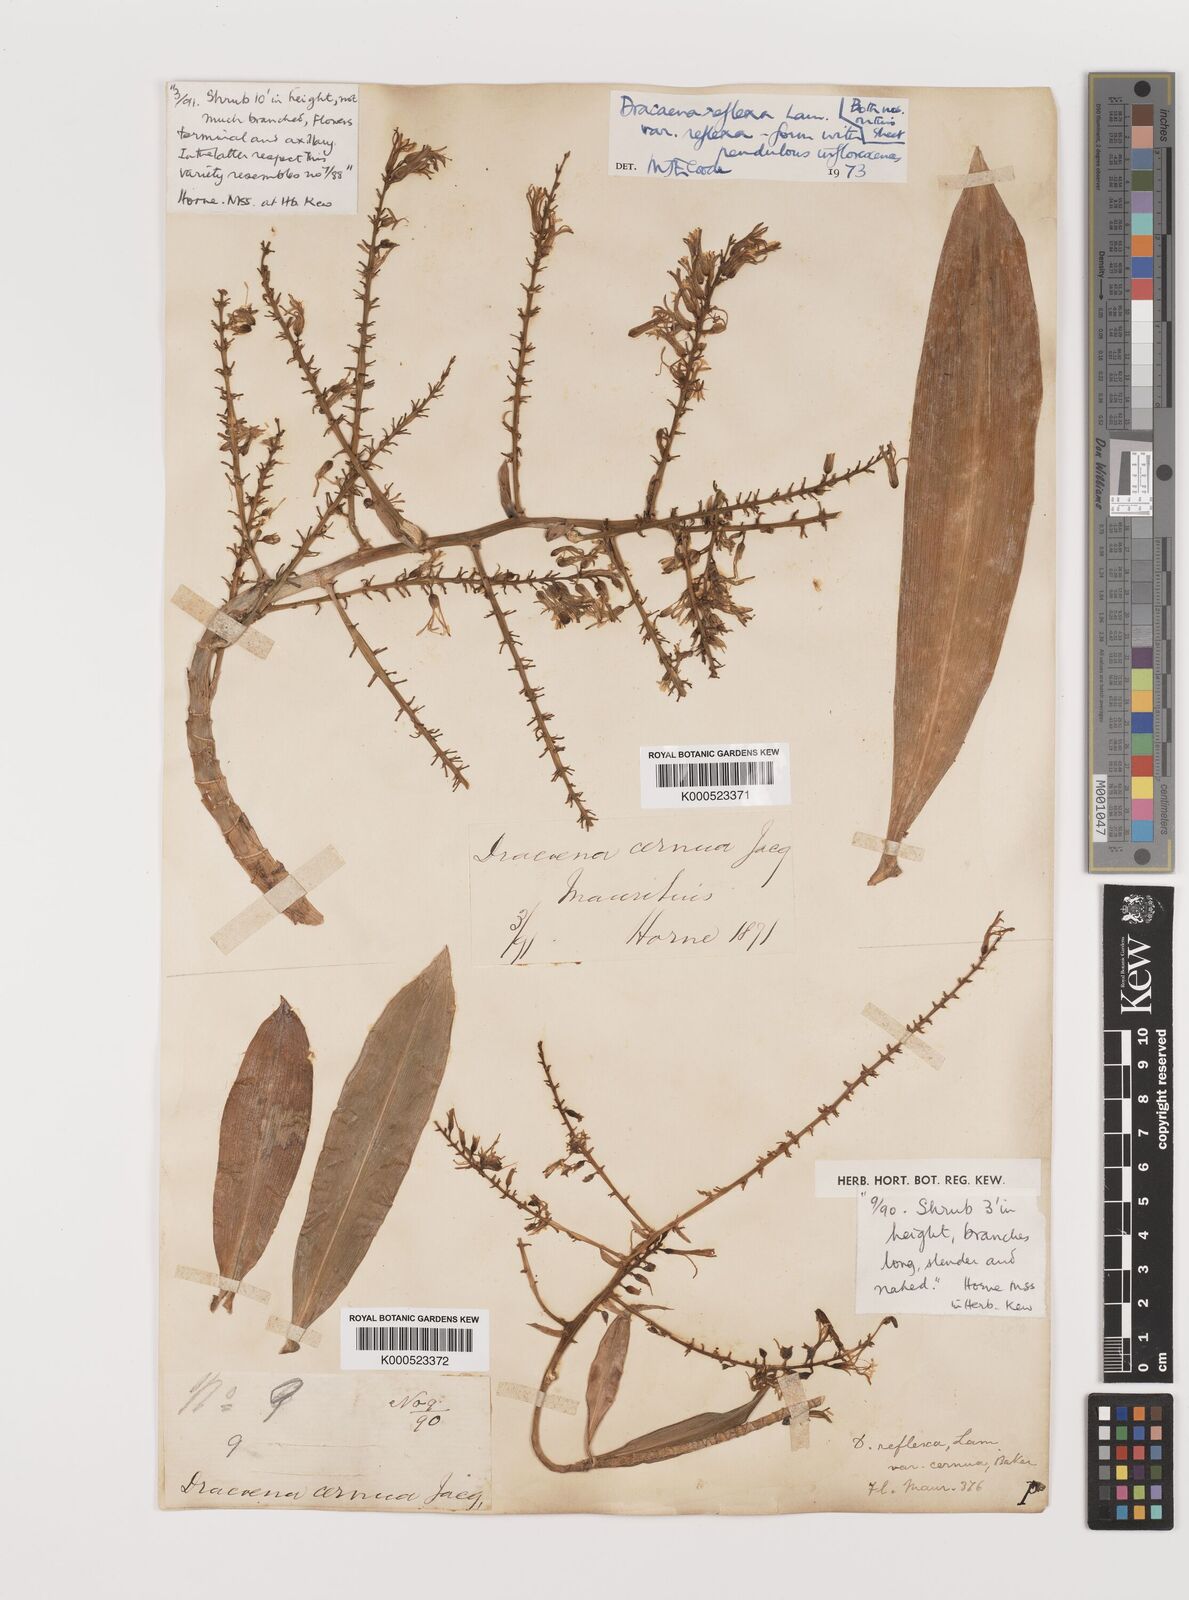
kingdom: Plantae
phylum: Tracheophyta
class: Liliopsida
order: Asparagales
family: Asparagaceae
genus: Dracaena
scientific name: Dracaena reflexa
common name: Song-of-india
